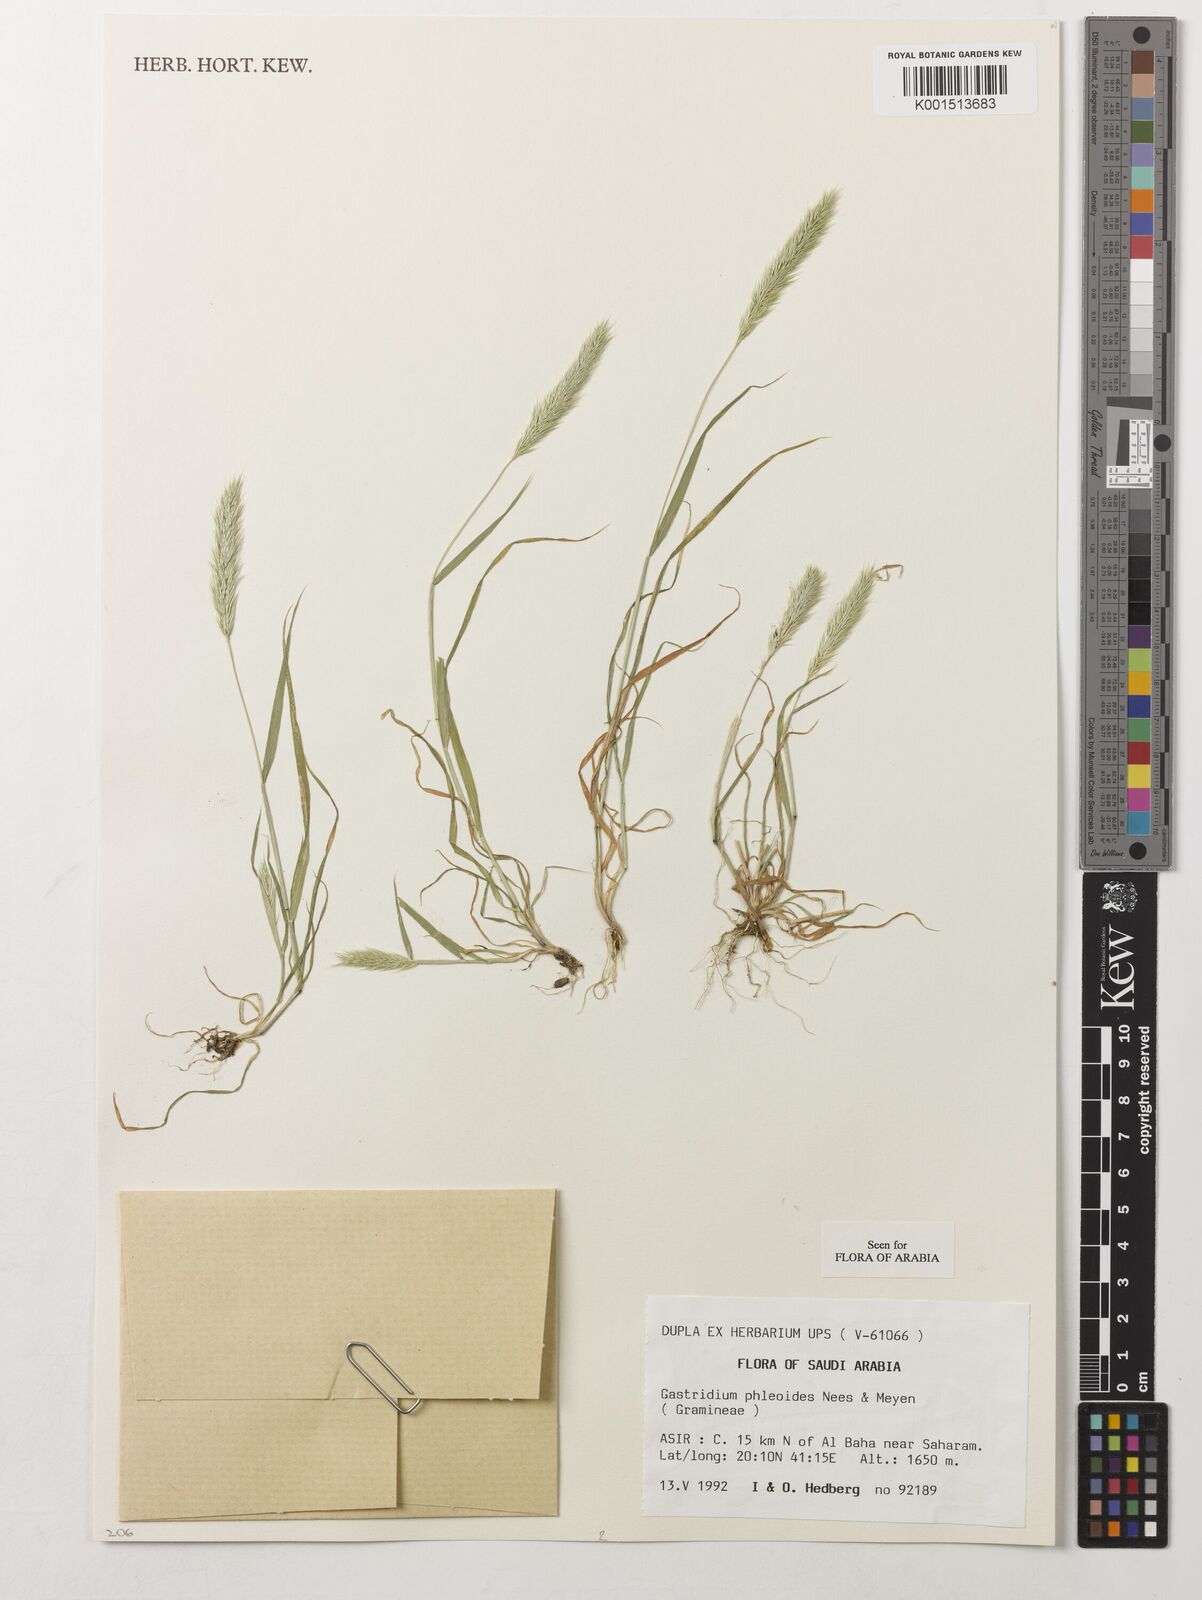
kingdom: Plantae
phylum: Tracheophyta
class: Liliopsida
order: Poales
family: Poaceae
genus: Gastridium
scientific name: Gastridium phleoides
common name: Nit grass
